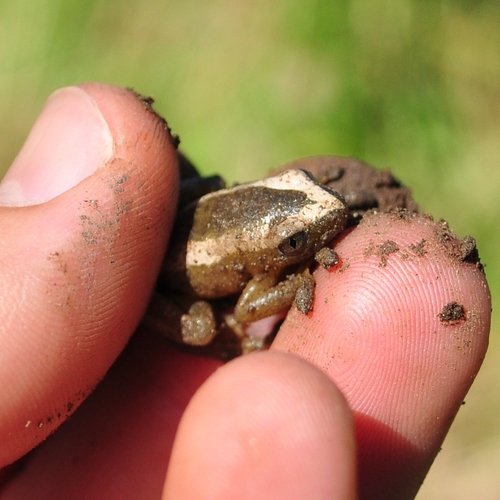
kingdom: Animalia
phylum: Chordata
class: Amphibia
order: Anura
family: Hyperoliidae
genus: Afrixalus
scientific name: Afrixalus fornasini
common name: Fornasini's spiny reed frog
